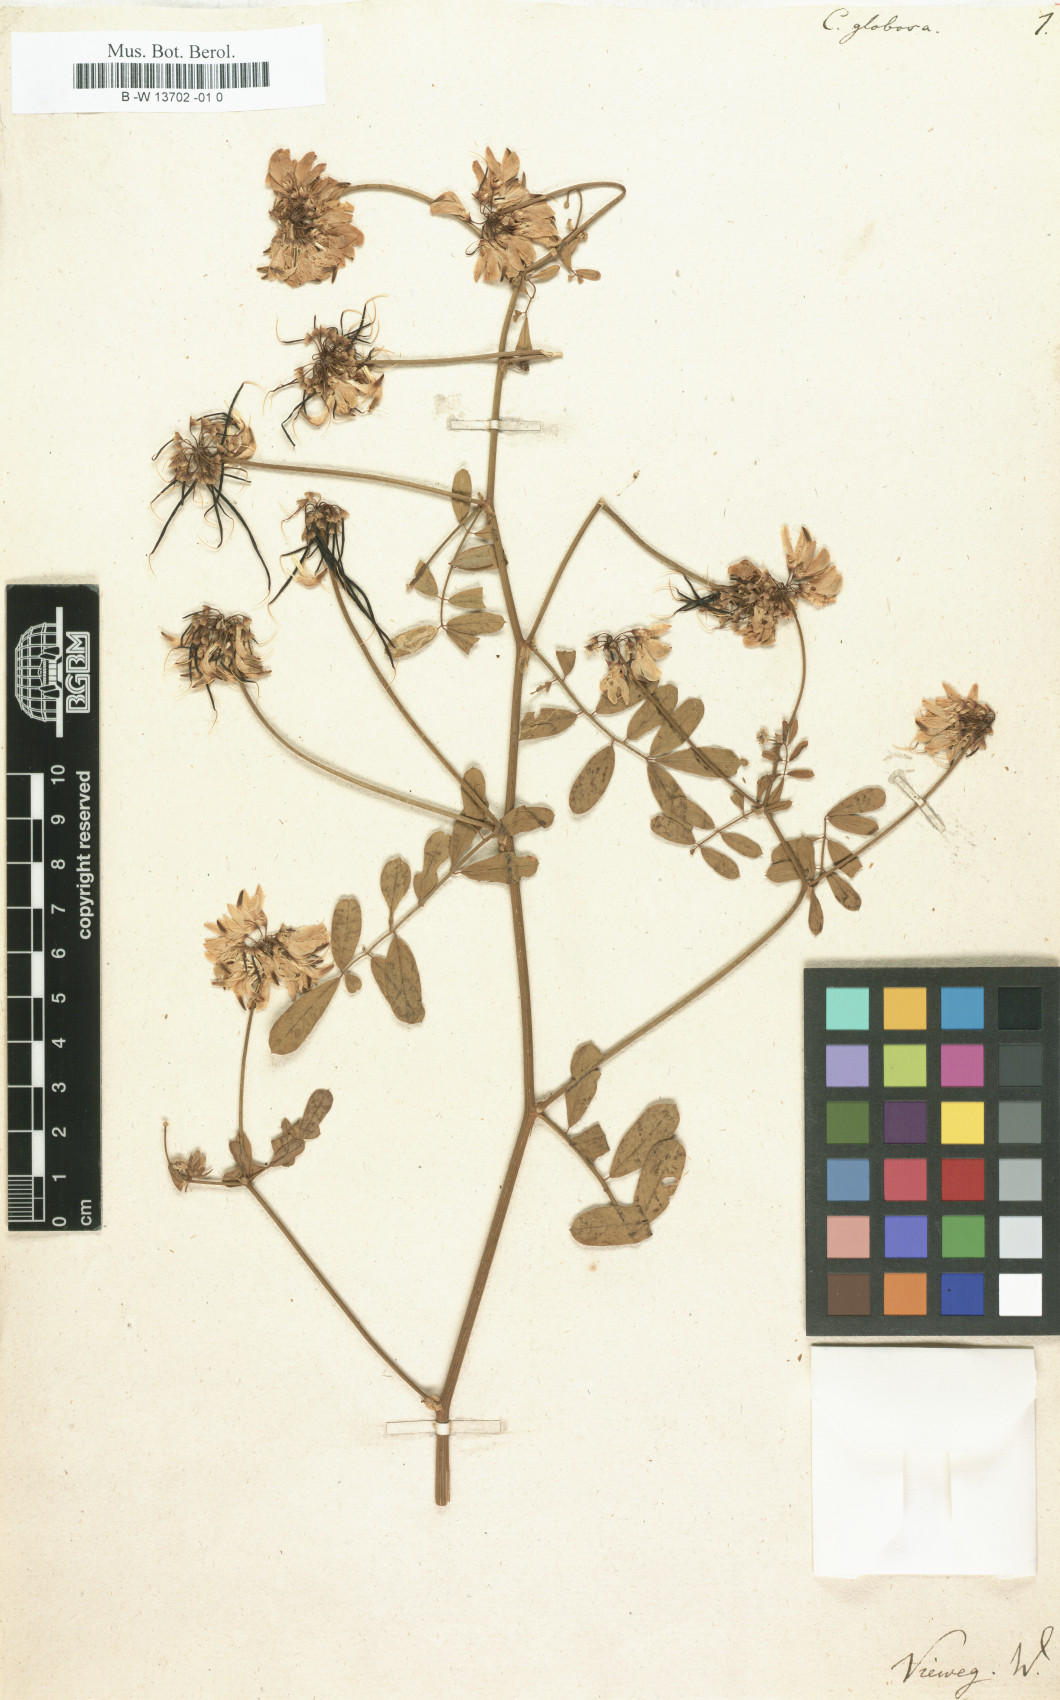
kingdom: Plantae
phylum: Tracheophyta
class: Magnoliopsida
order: Fabales
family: Fabaceae
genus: Coronilla
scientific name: Coronilla globosa
